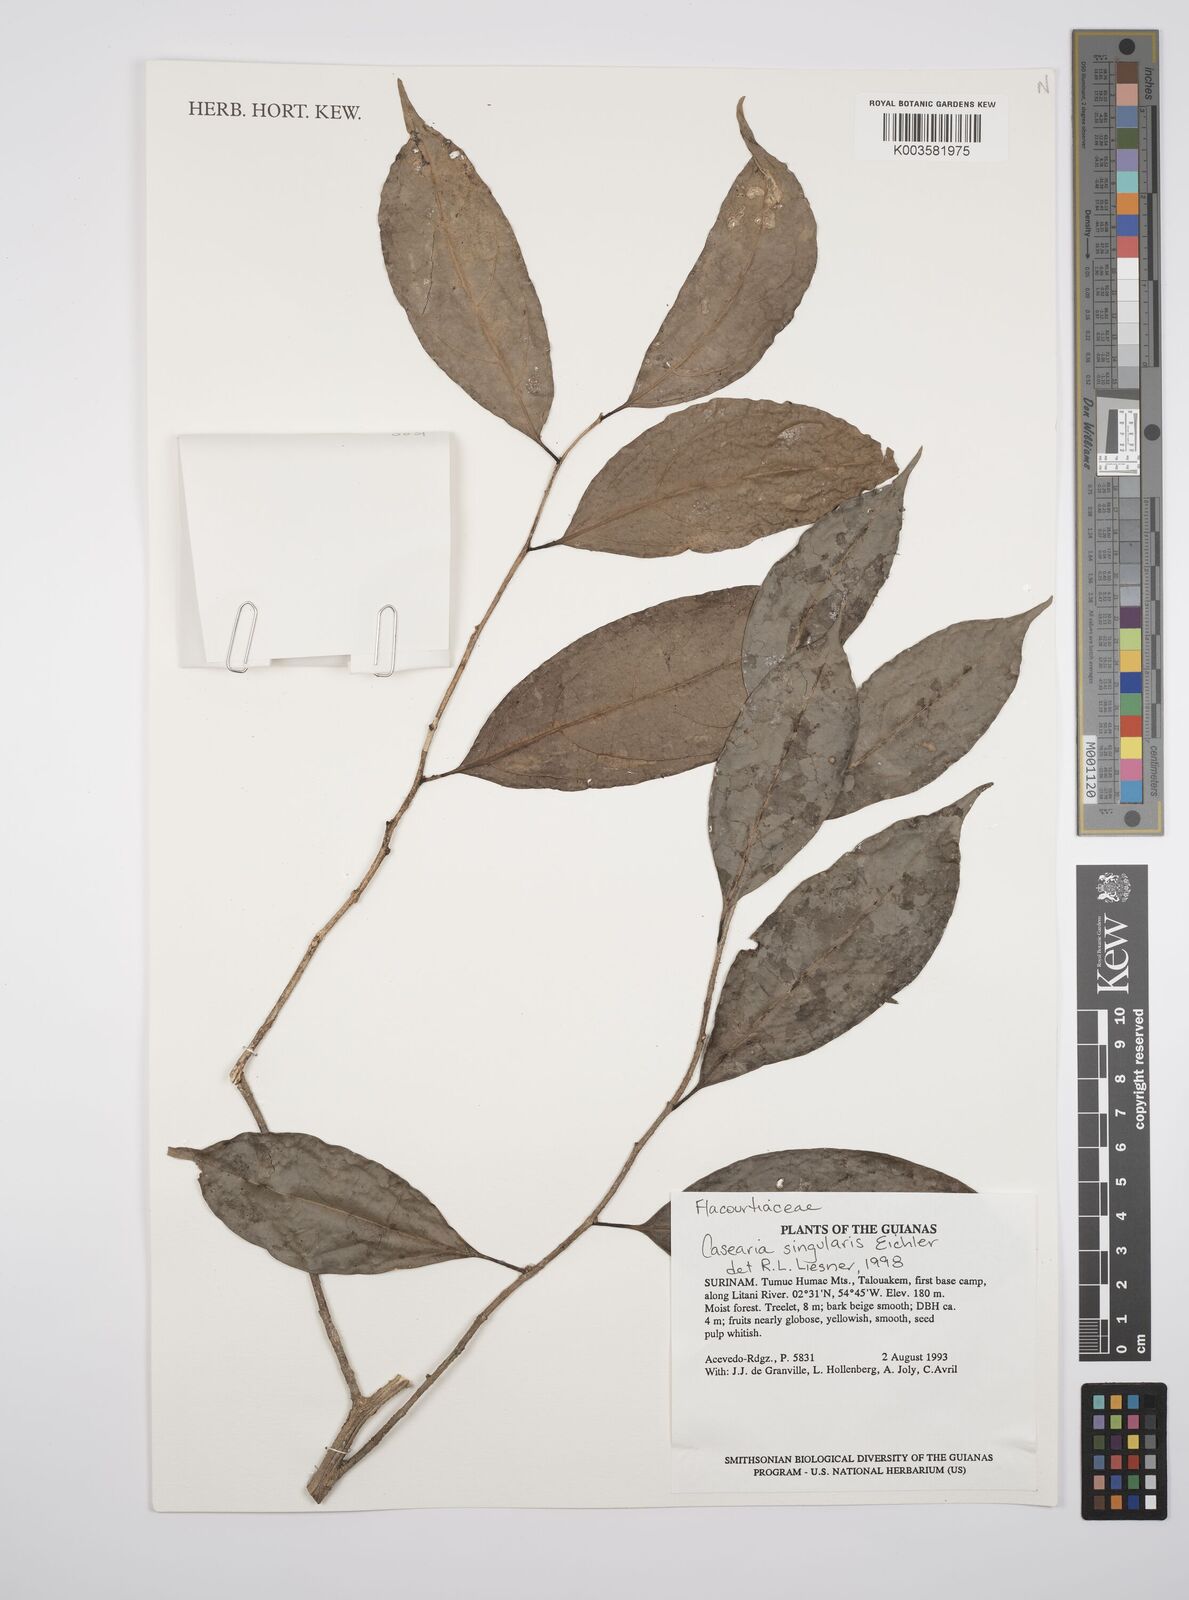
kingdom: Plantae
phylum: Tracheophyta
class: Magnoliopsida
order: Malpighiales
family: Salicaceae
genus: Casearia
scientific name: Casearia combaymensis
